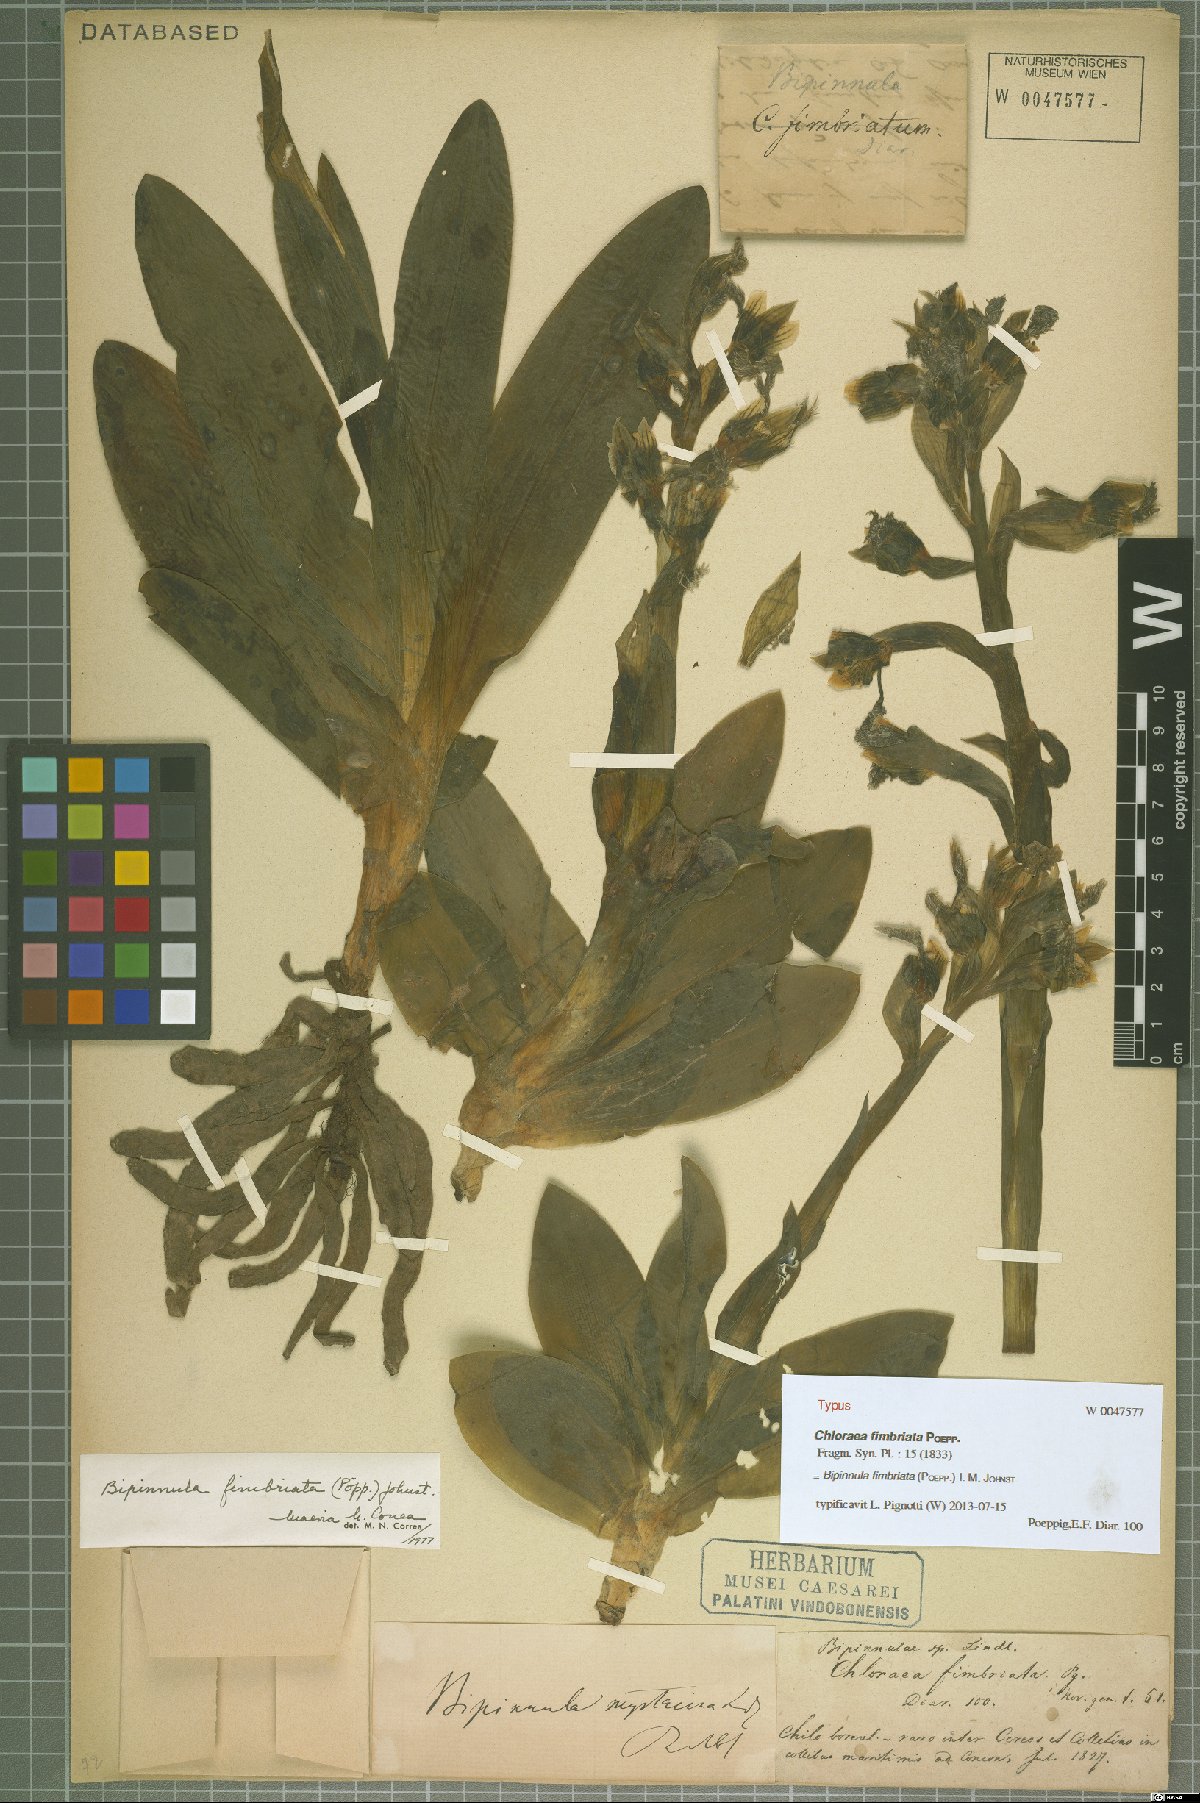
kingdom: Plantae
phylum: Tracheophyta
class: Liliopsida
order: Asparagales
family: Orchidaceae
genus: Bipinnula
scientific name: Bipinnula fimbriata
